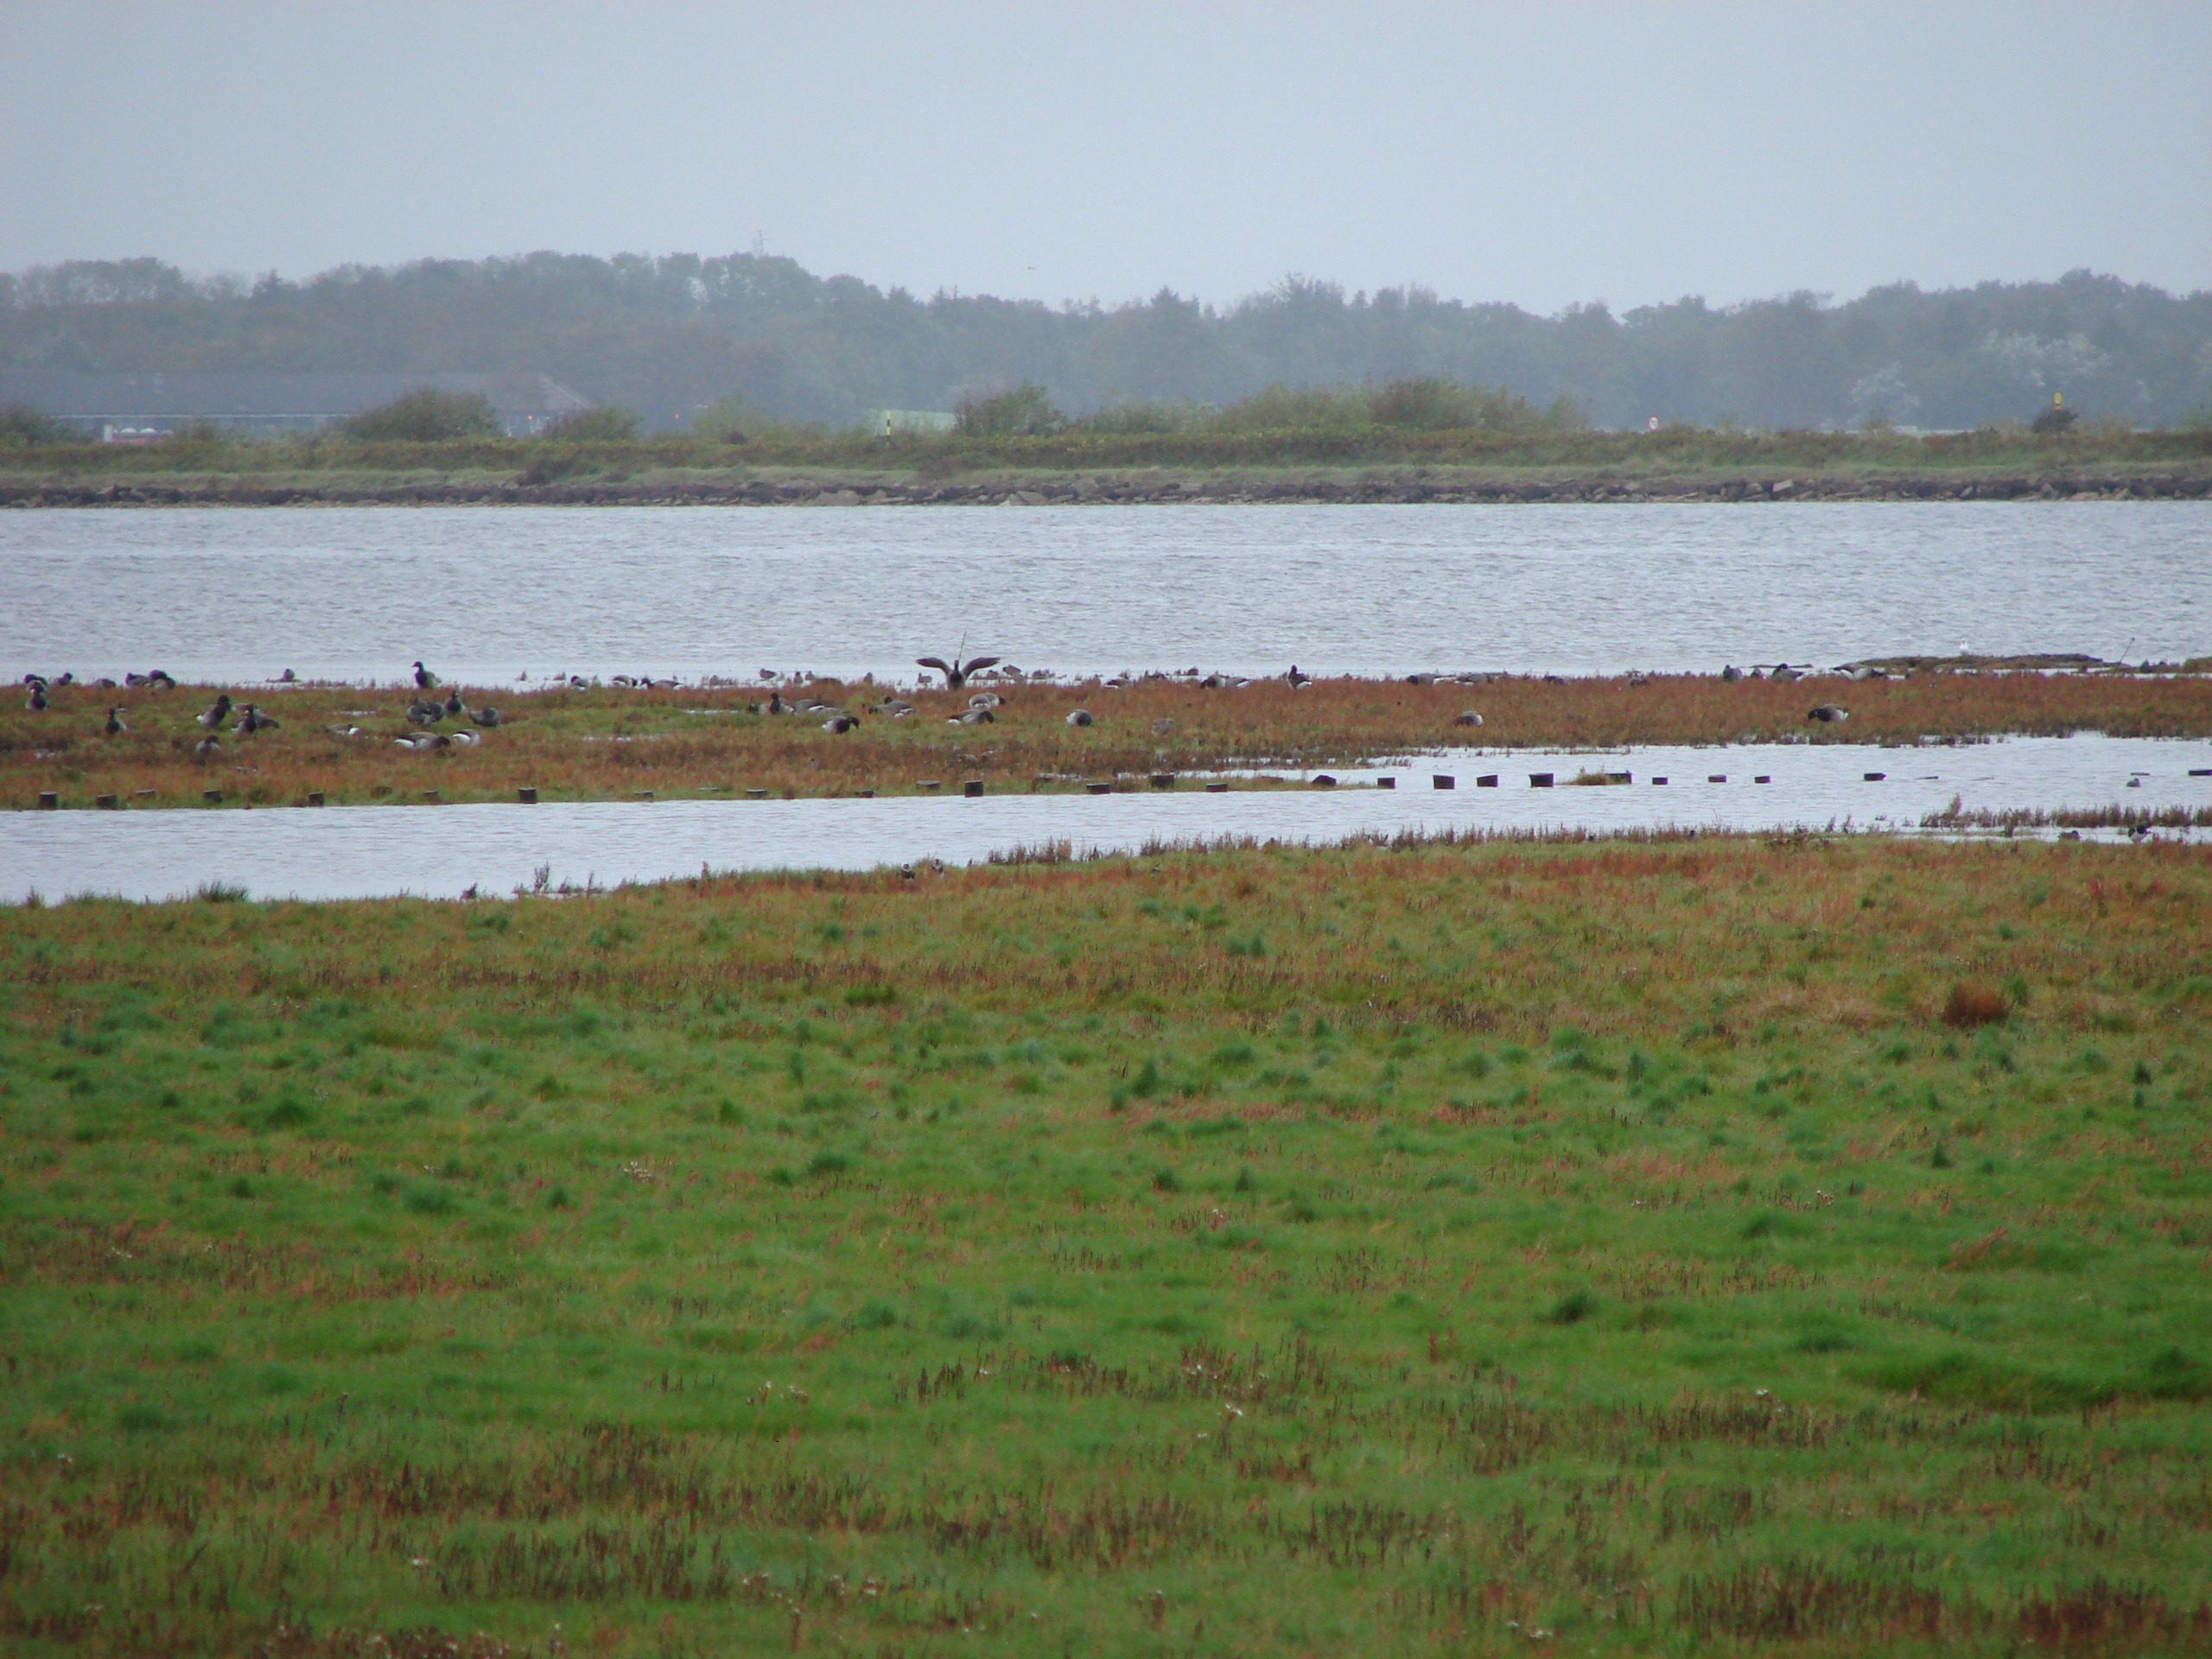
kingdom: Animalia
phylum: Chordata
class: Aves
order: Anseriformes
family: Anatidae
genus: Branta
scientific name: Branta bernicla
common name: Lysbuget knortegås
